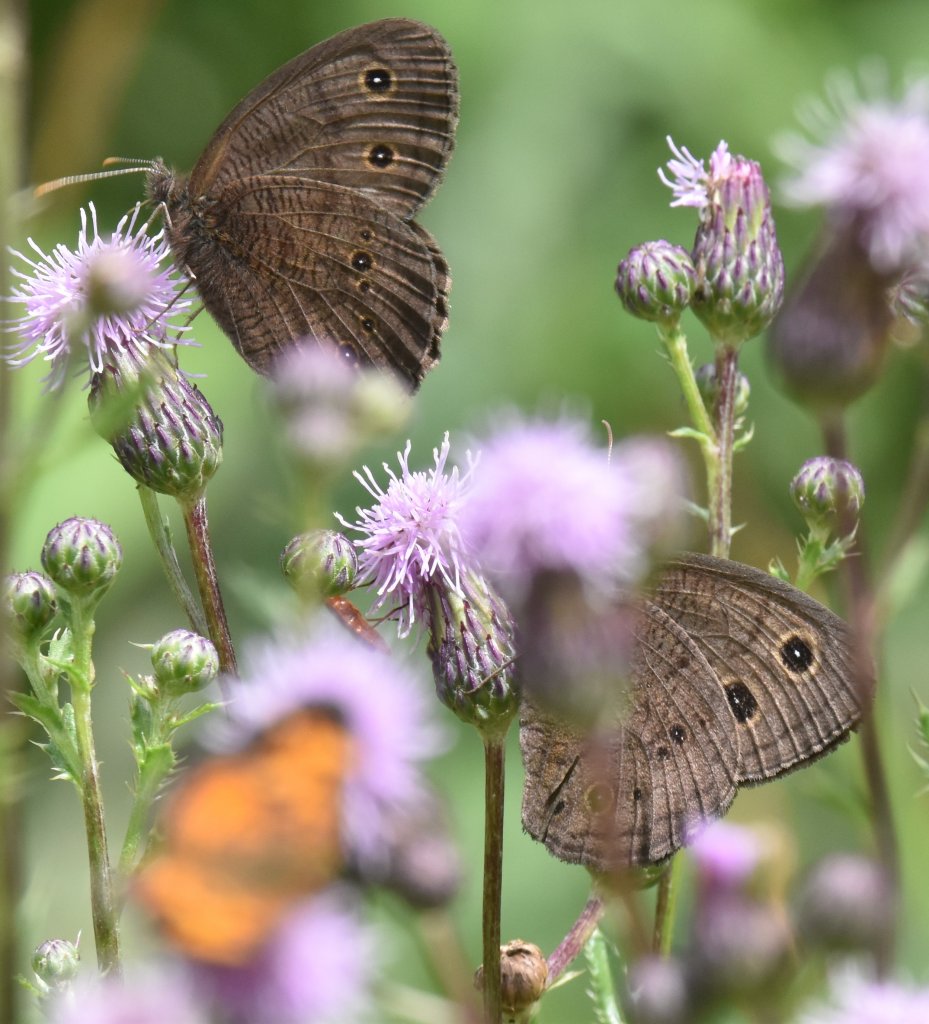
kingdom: Animalia
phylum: Arthropoda
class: Insecta
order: Lepidoptera
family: Nymphalidae
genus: Cercyonis
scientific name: Cercyonis pegala
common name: Common Wood-Nymph
